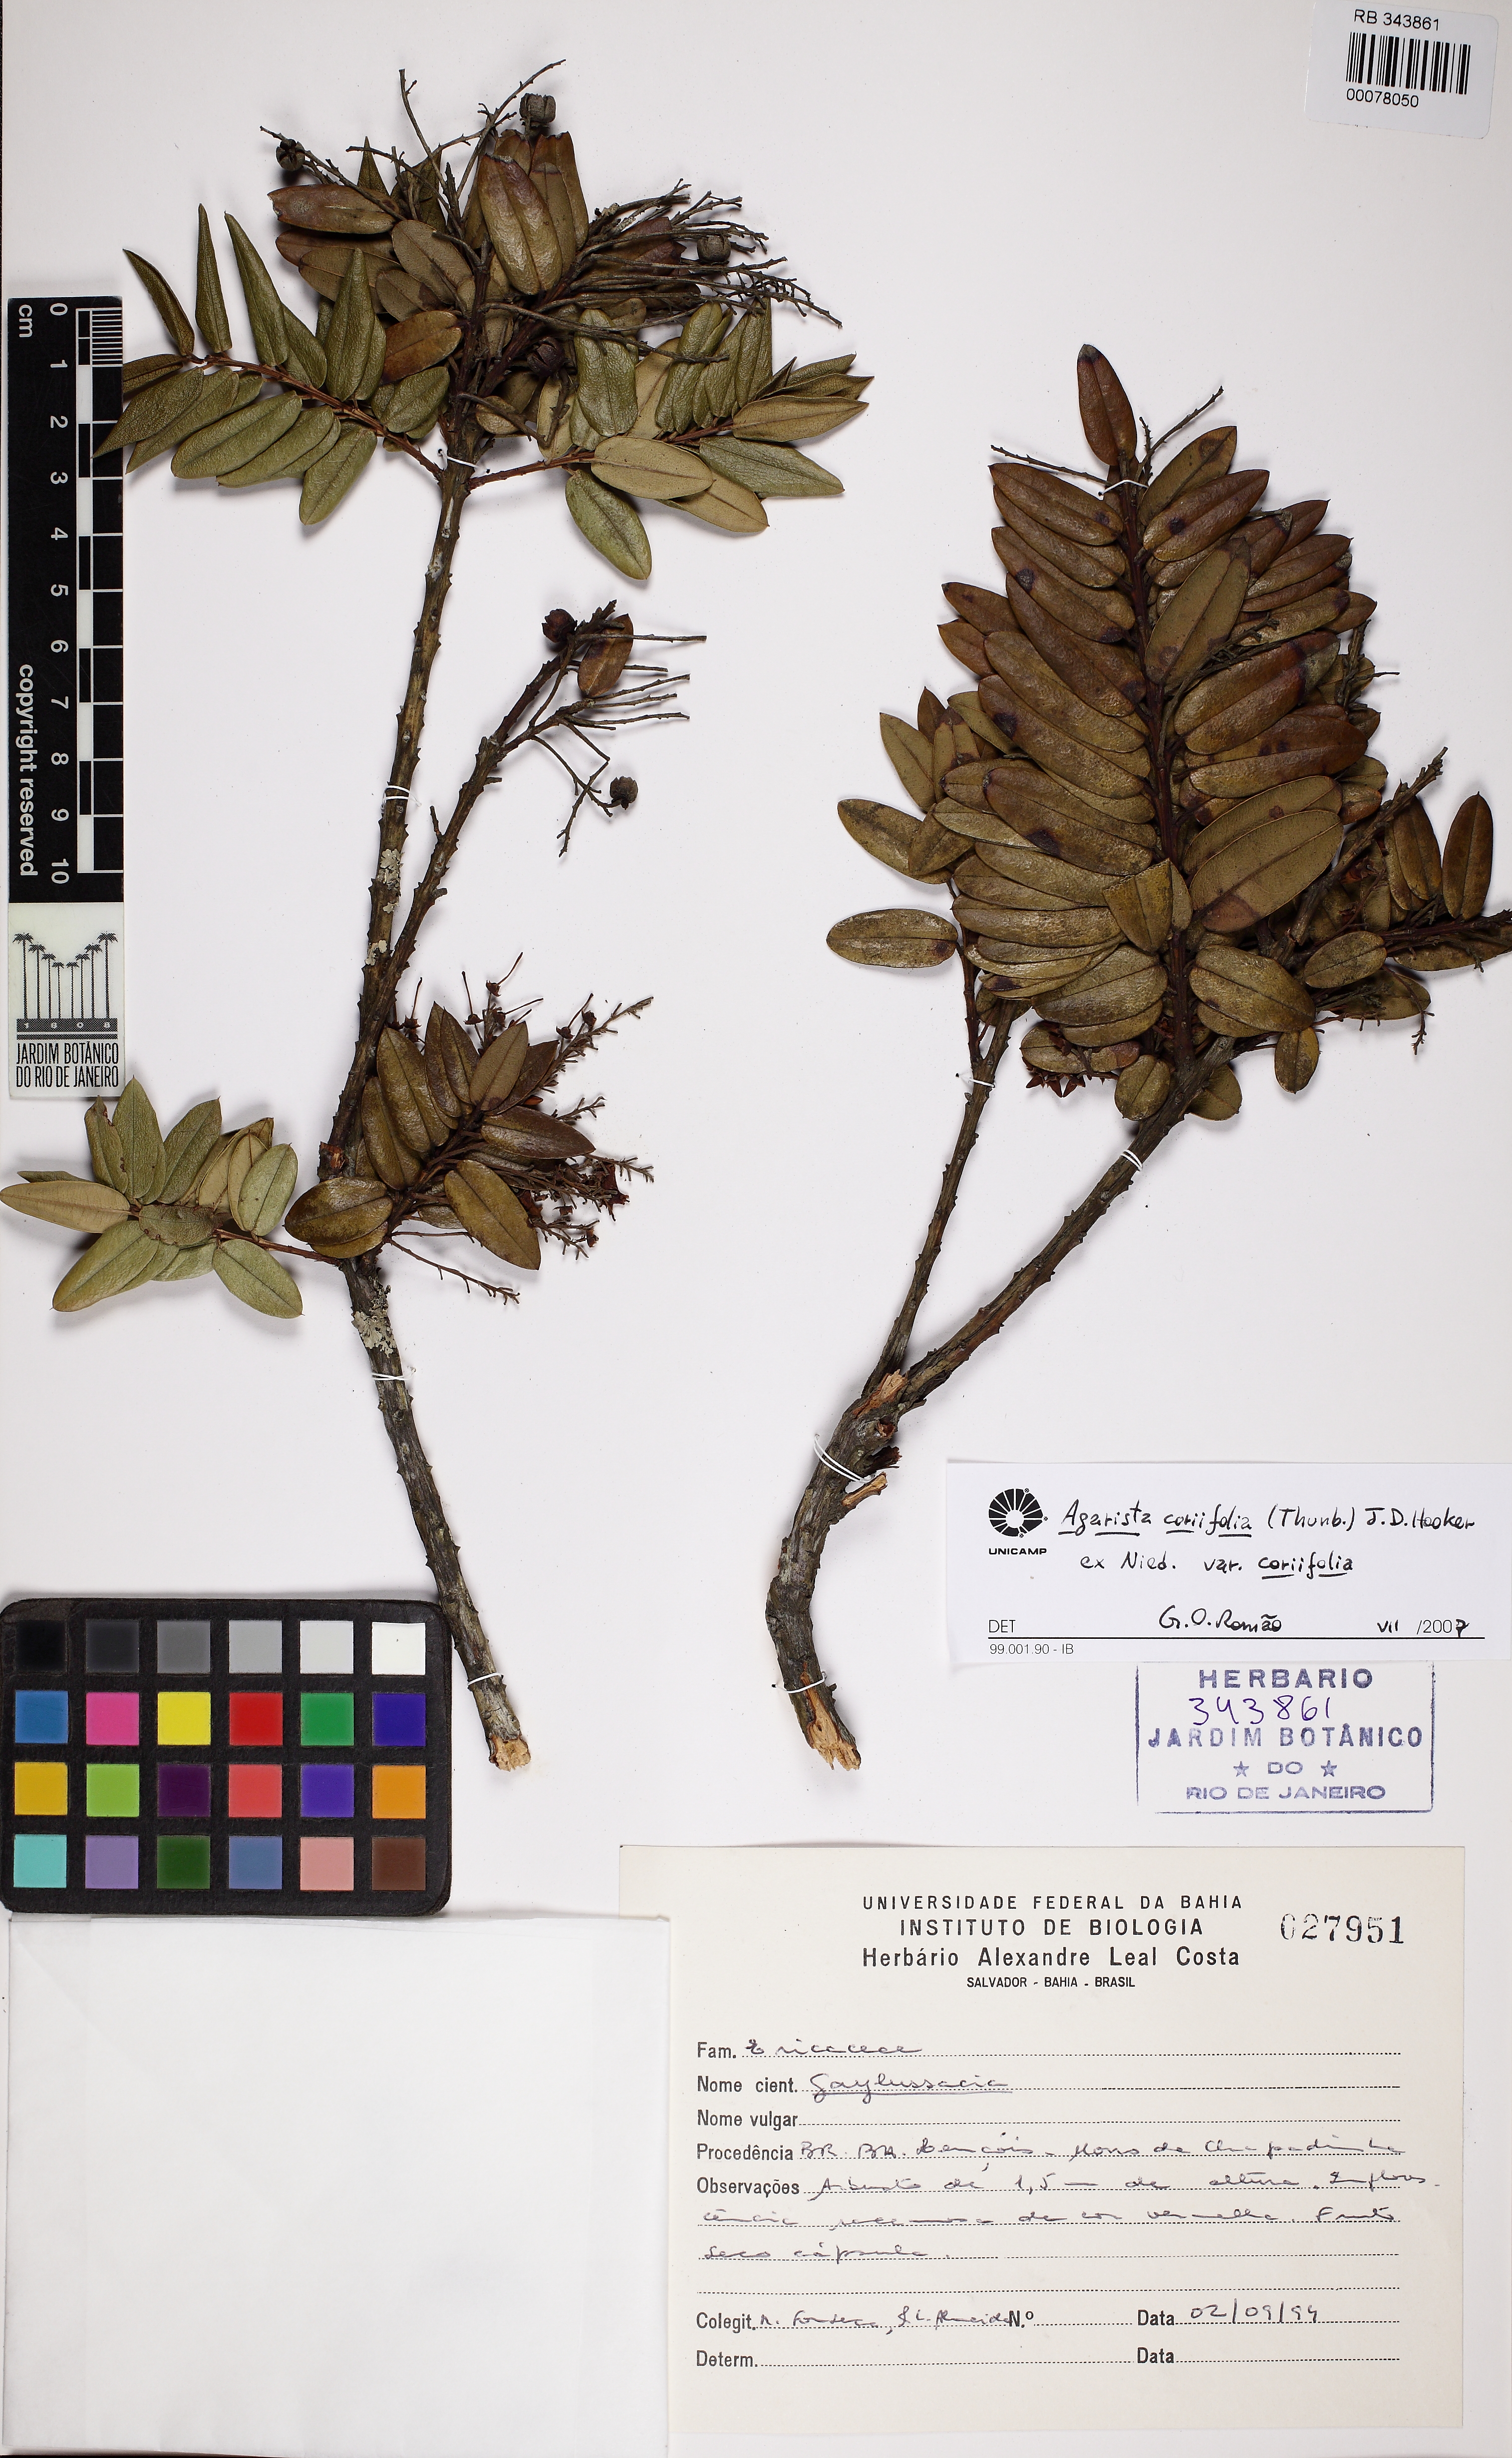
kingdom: Plantae
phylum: Tracheophyta
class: Magnoliopsida
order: Ericales
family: Ericaceae
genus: Agarista
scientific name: Agarista coriifolia
